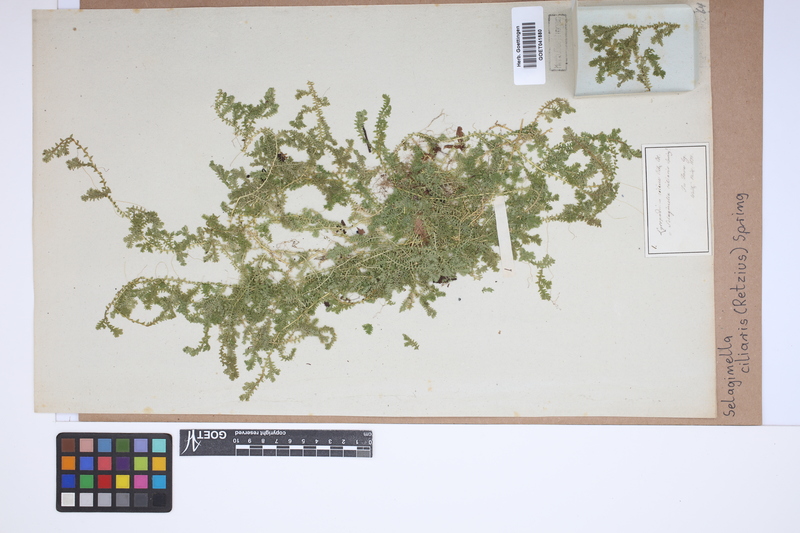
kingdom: Plantae
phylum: Tracheophyta
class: Lycopodiopsida
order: Selaginellales
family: Selaginellaceae
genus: Selaginella
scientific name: Selaginella ciliaris
